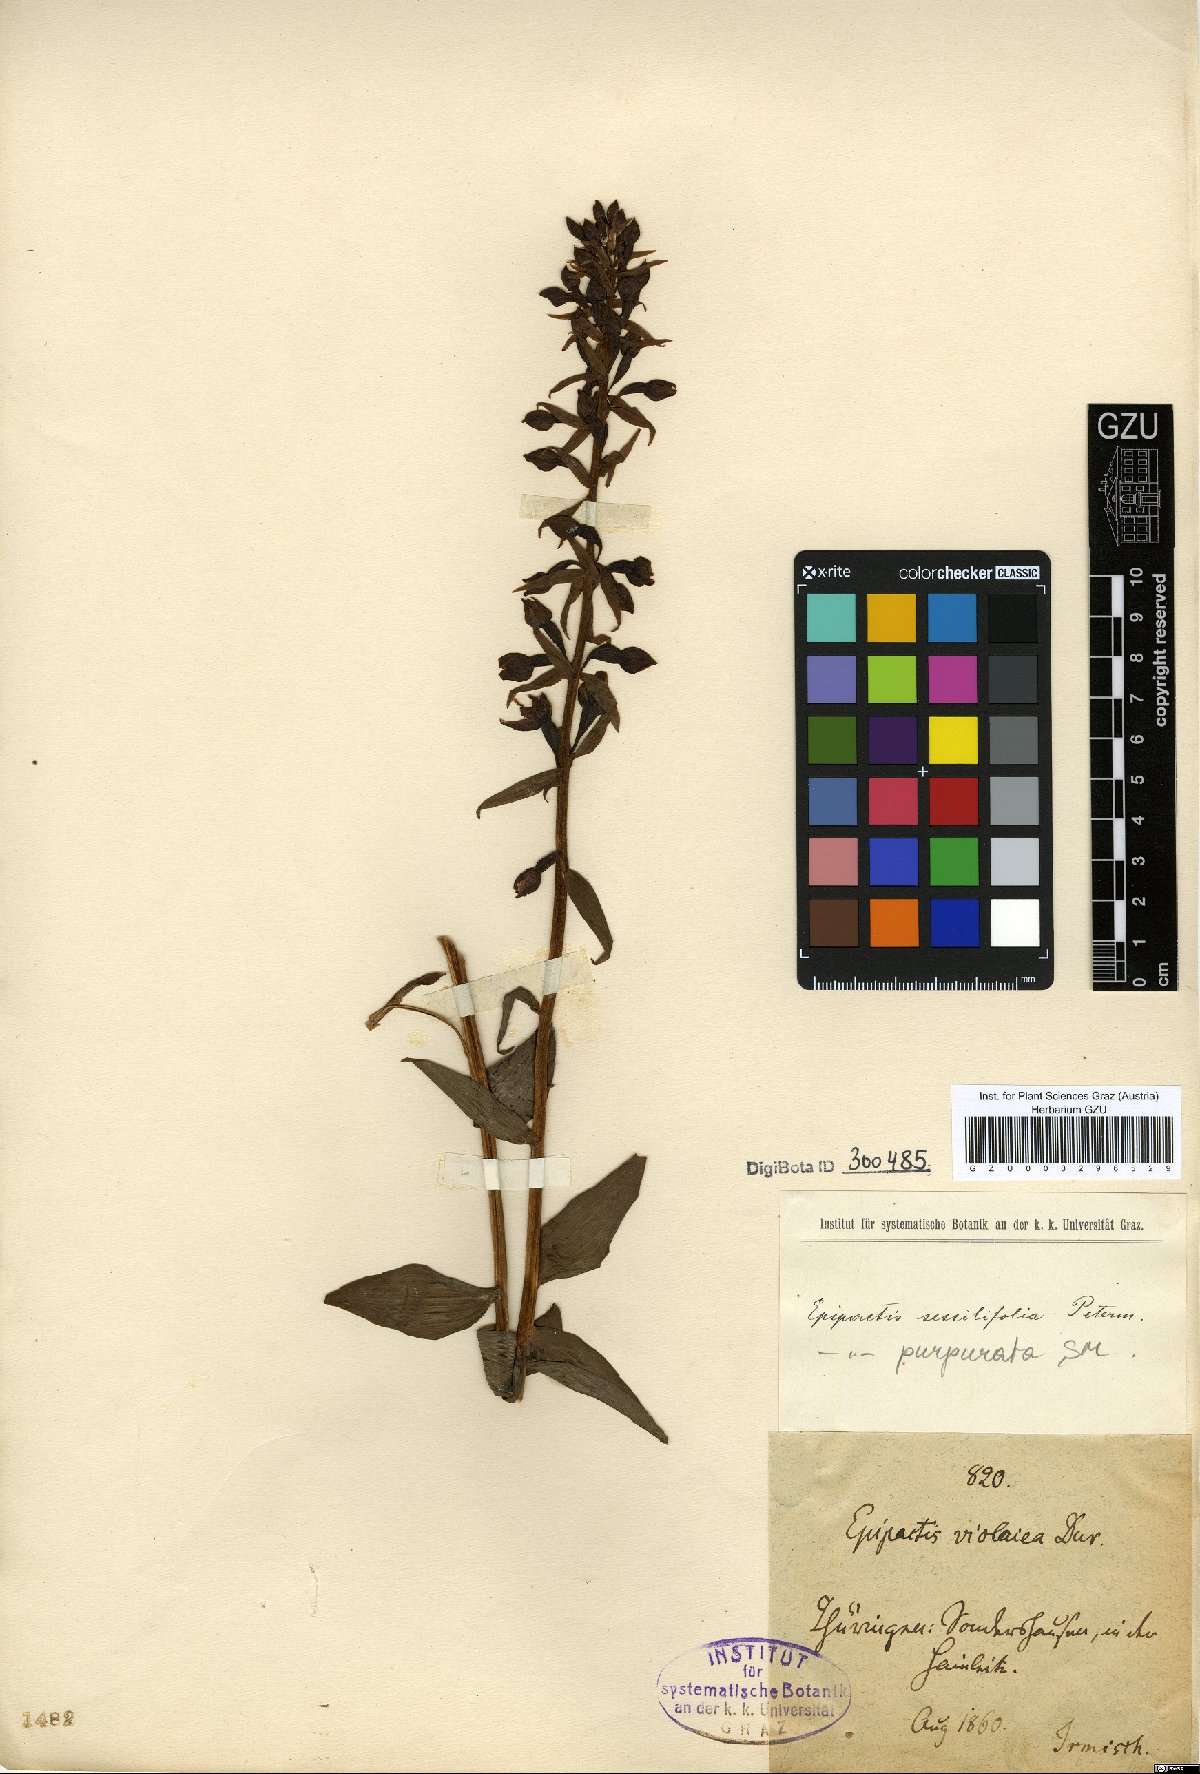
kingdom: Plantae
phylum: Tracheophyta
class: Liliopsida
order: Asparagales
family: Orchidaceae
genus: Epipactis
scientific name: Epipactis purpurata
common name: Violet helleborine
